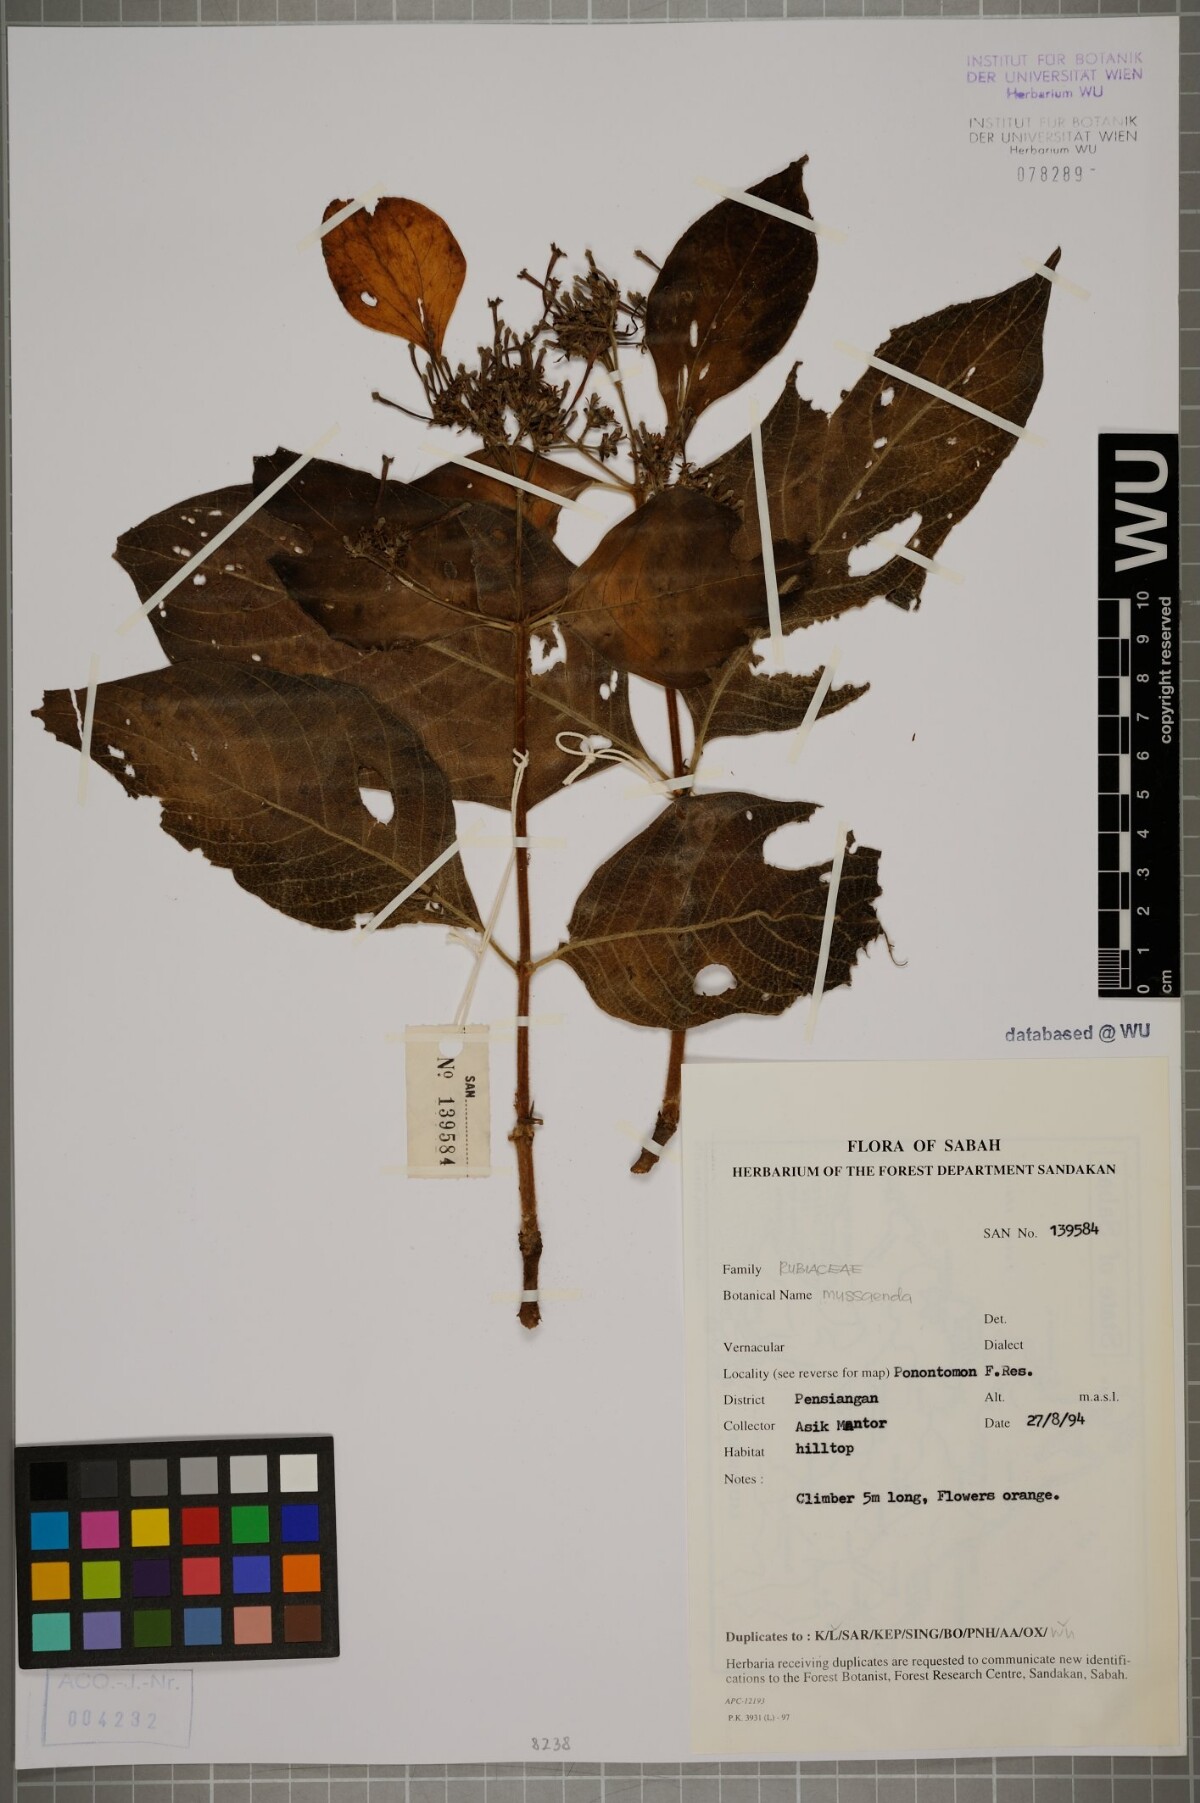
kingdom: Plantae
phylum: Tracheophyta
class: Magnoliopsida
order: Gentianales
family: Rubiaceae
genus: Mussaenda
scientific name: Mussaenda
